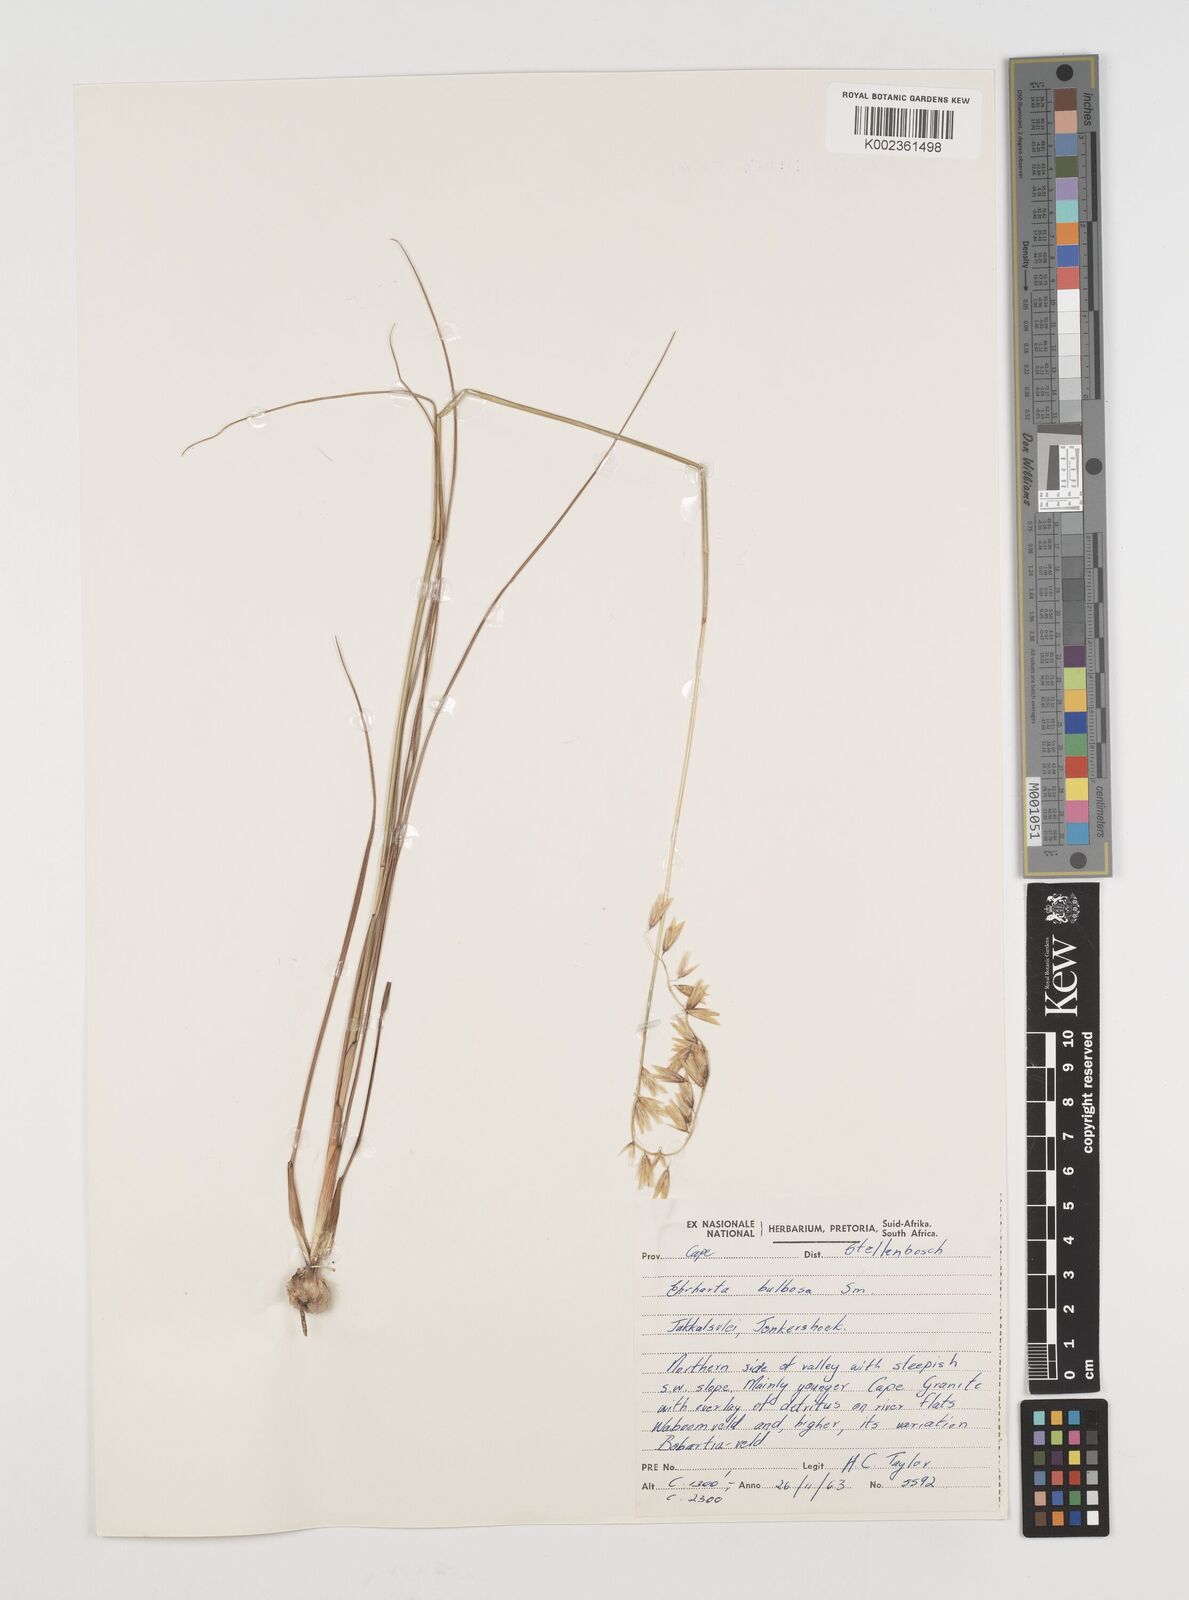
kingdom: Plantae
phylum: Tracheophyta
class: Liliopsida
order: Poales
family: Poaceae
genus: Ehrharta
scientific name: Ehrharta bulbosa
